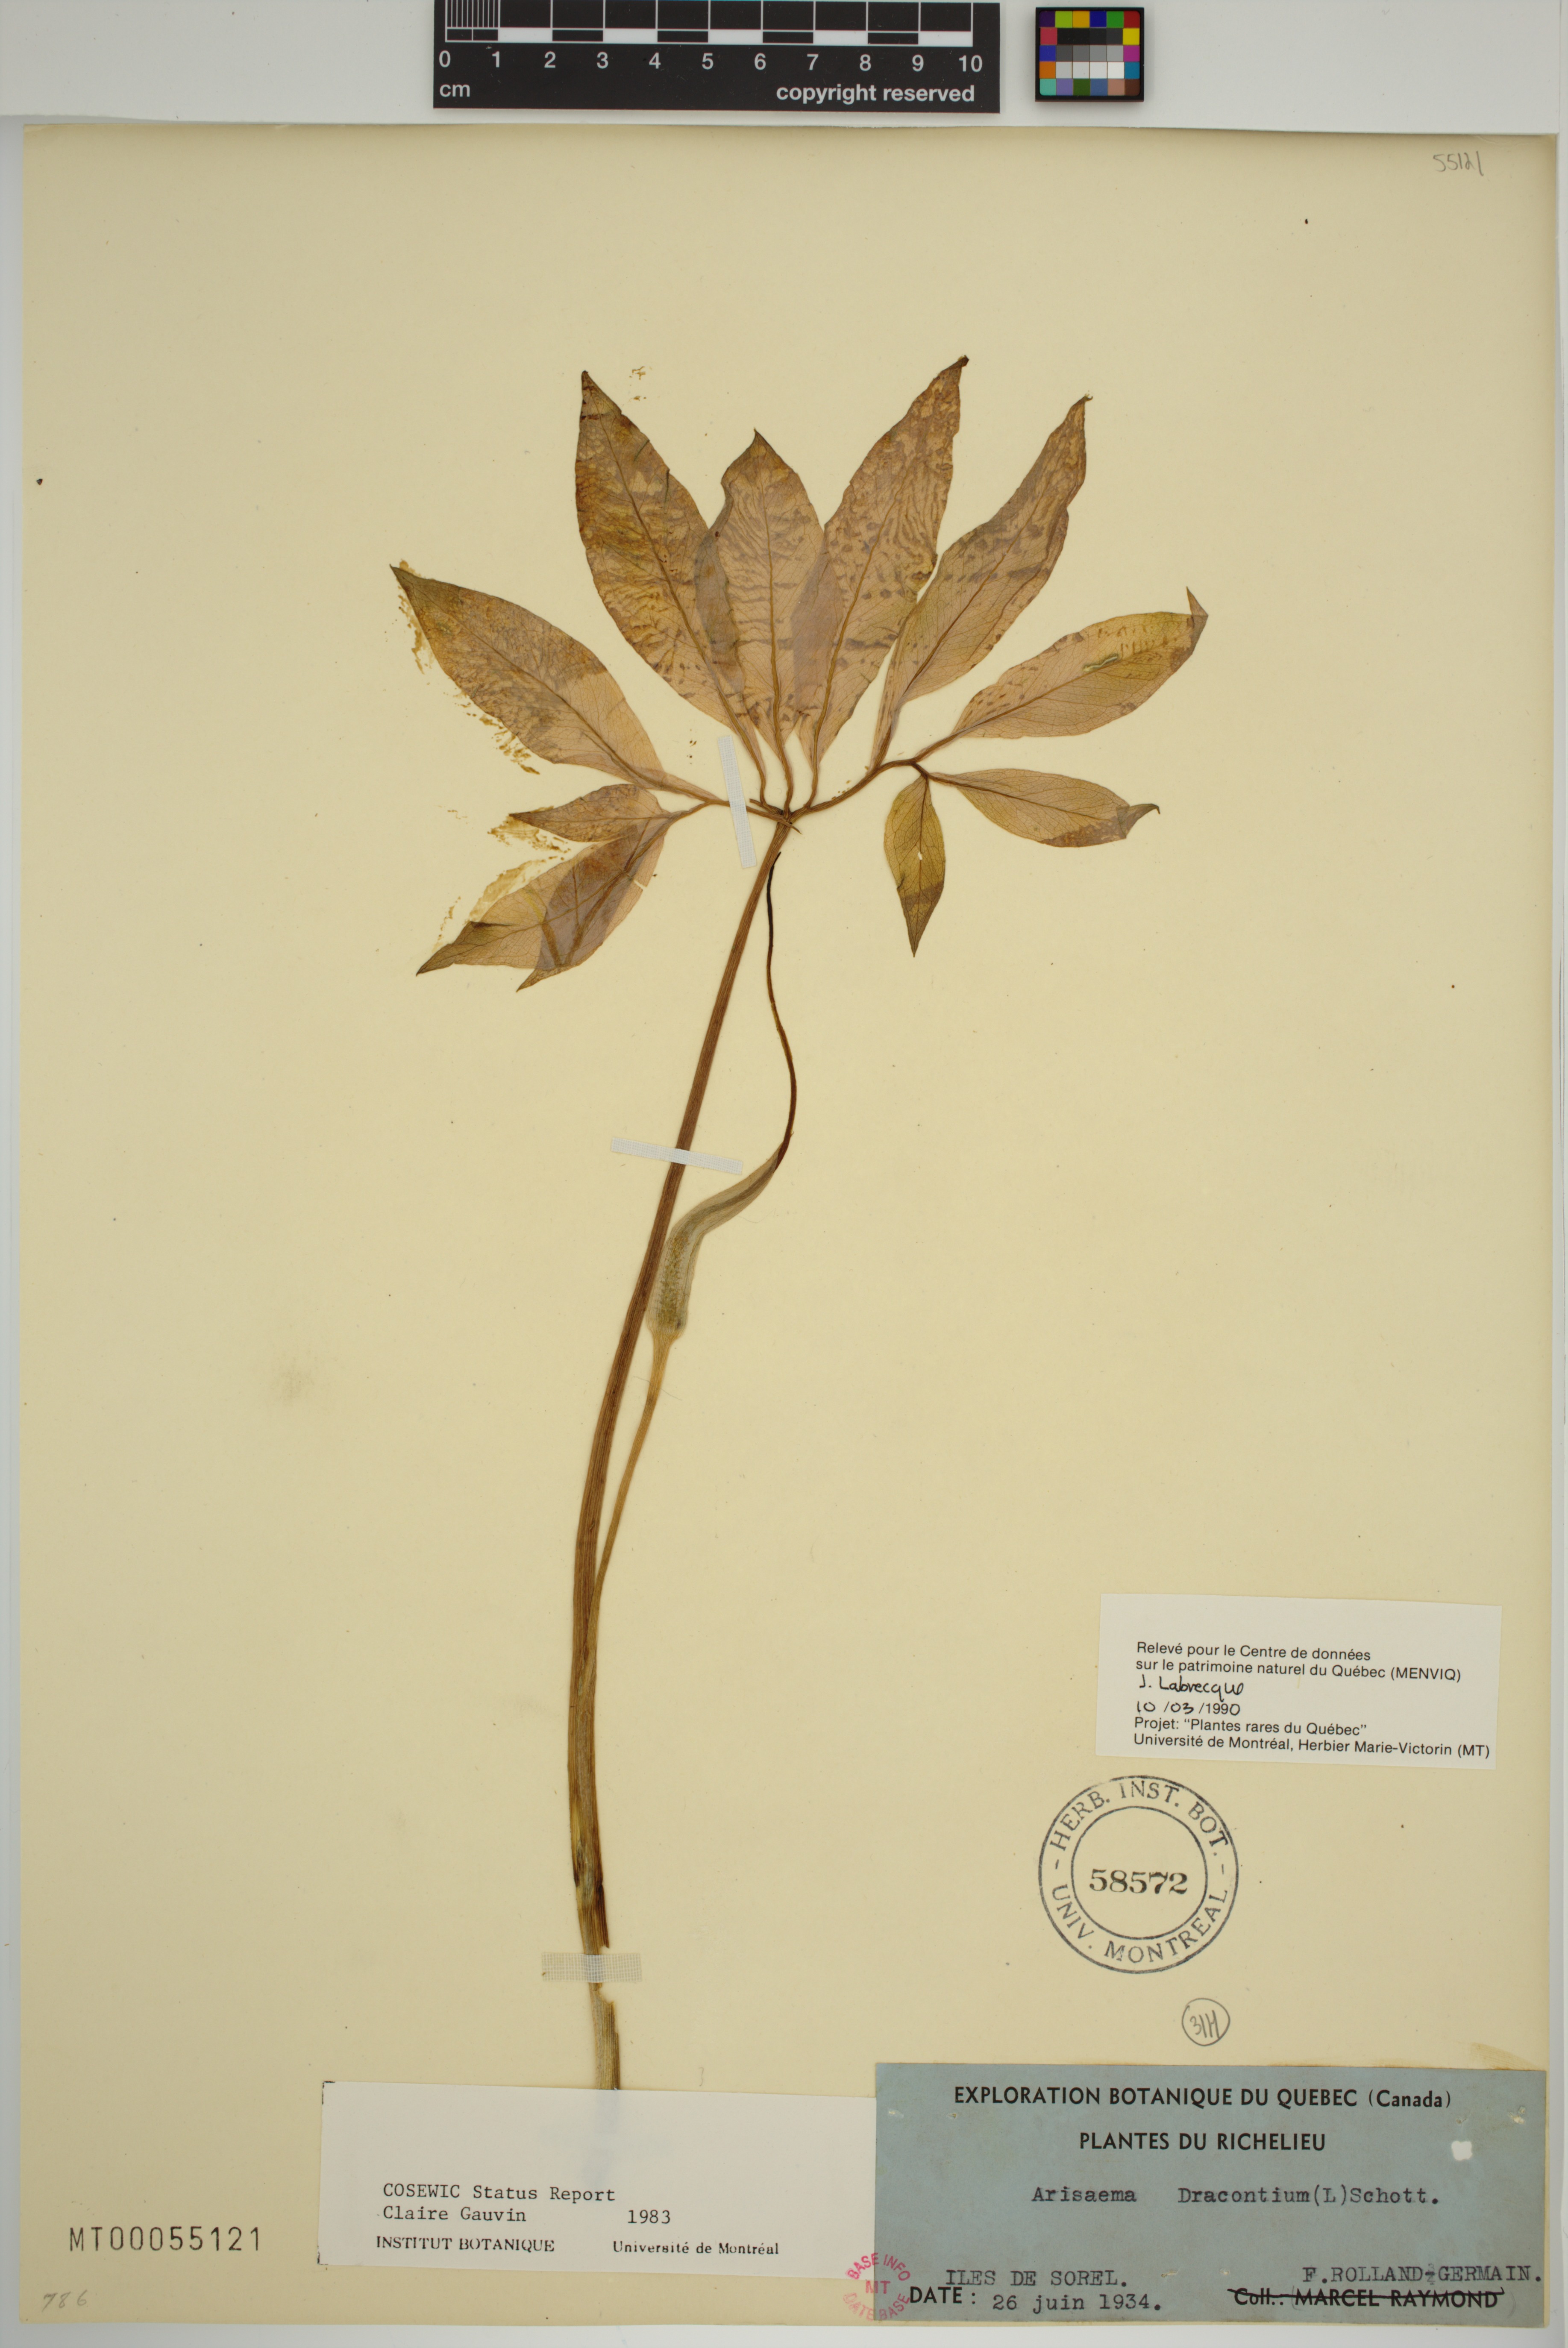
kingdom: Plantae
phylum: Tracheophyta
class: Liliopsida
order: Alismatales
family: Araceae
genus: Arisaema
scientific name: Arisaema dracontium
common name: Dragon-arum
